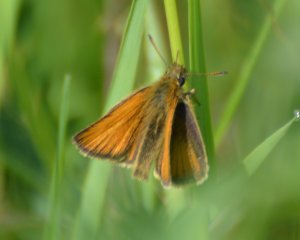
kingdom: Animalia
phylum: Arthropoda
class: Insecta
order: Lepidoptera
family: Hesperiidae
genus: Thymelicus
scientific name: Thymelicus lineola
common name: European Skipper
